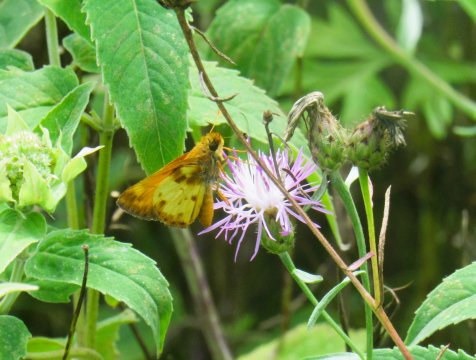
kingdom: Animalia
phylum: Arthropoda
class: Insecta
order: Lepidoptera
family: Hesperiidae
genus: Lon
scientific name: Lon zabulon
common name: Zabulon Skipper
